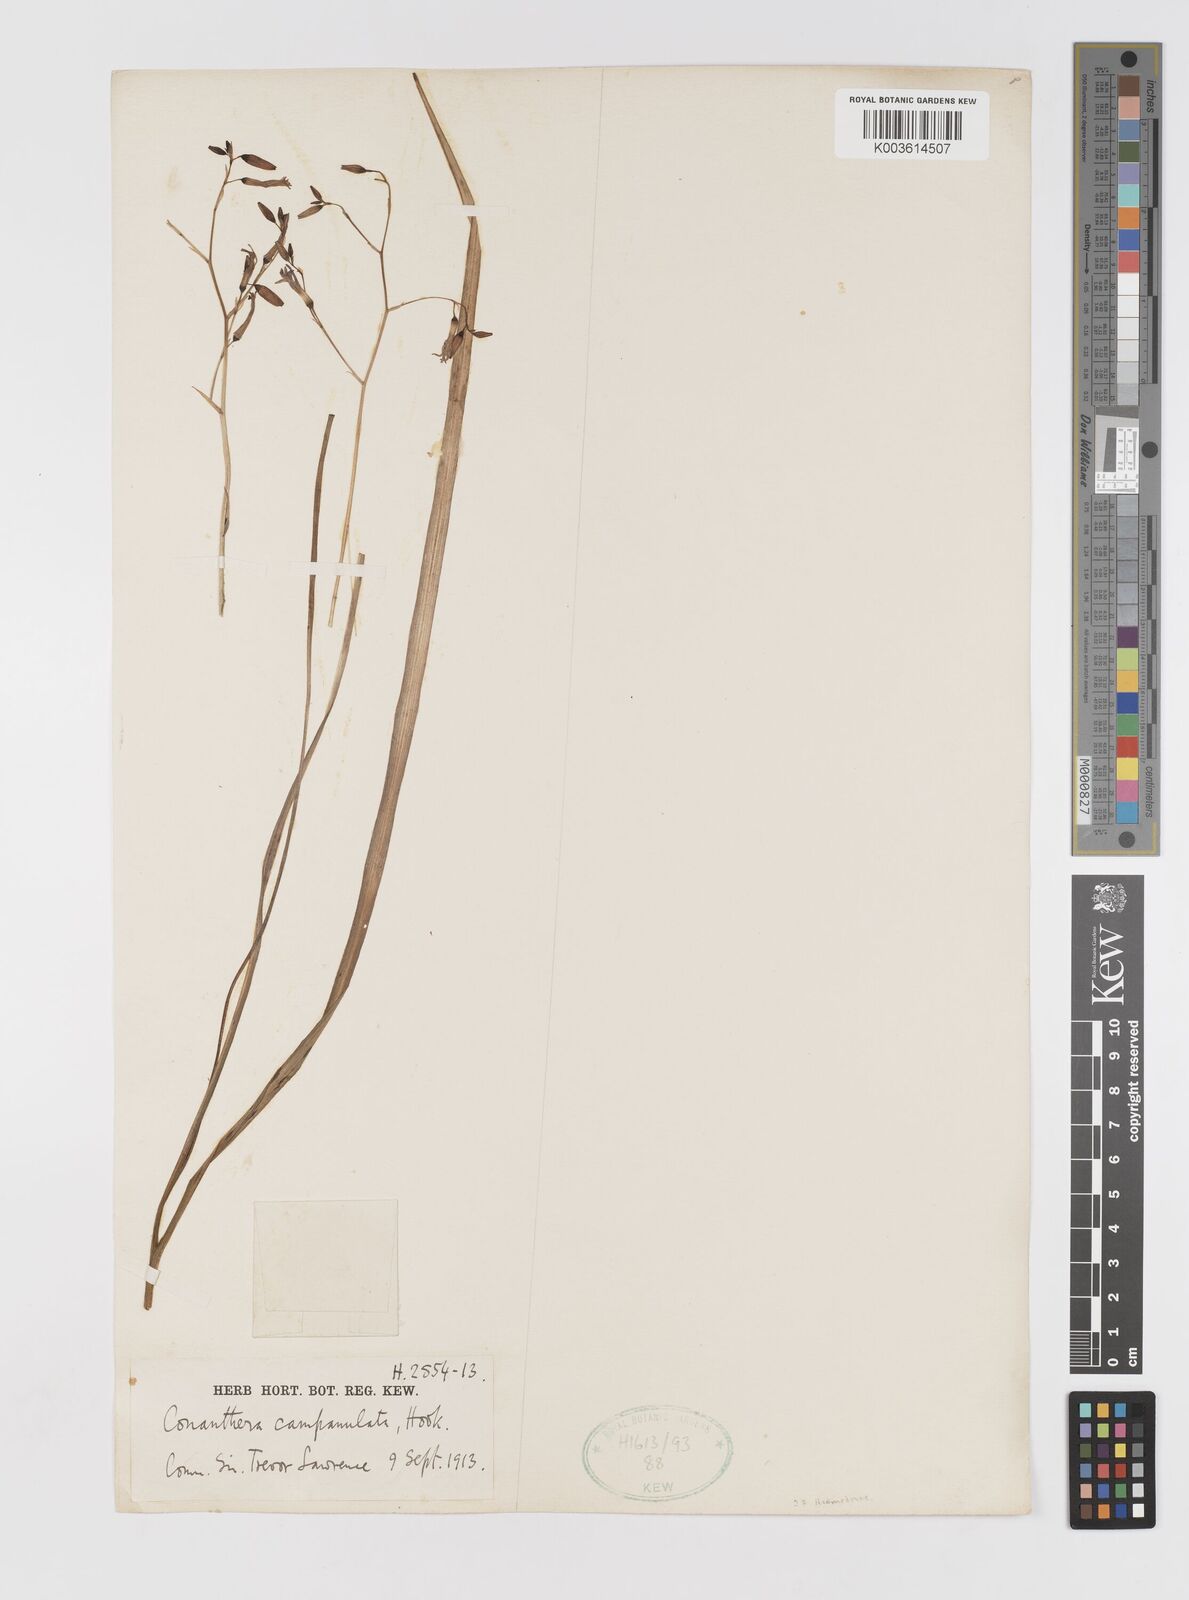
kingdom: Plantae
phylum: Tracheophyta
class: Liliopsida
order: Asparagales
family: Tecophilaeaceae
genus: Conanthera
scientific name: Conanthera campanulata
